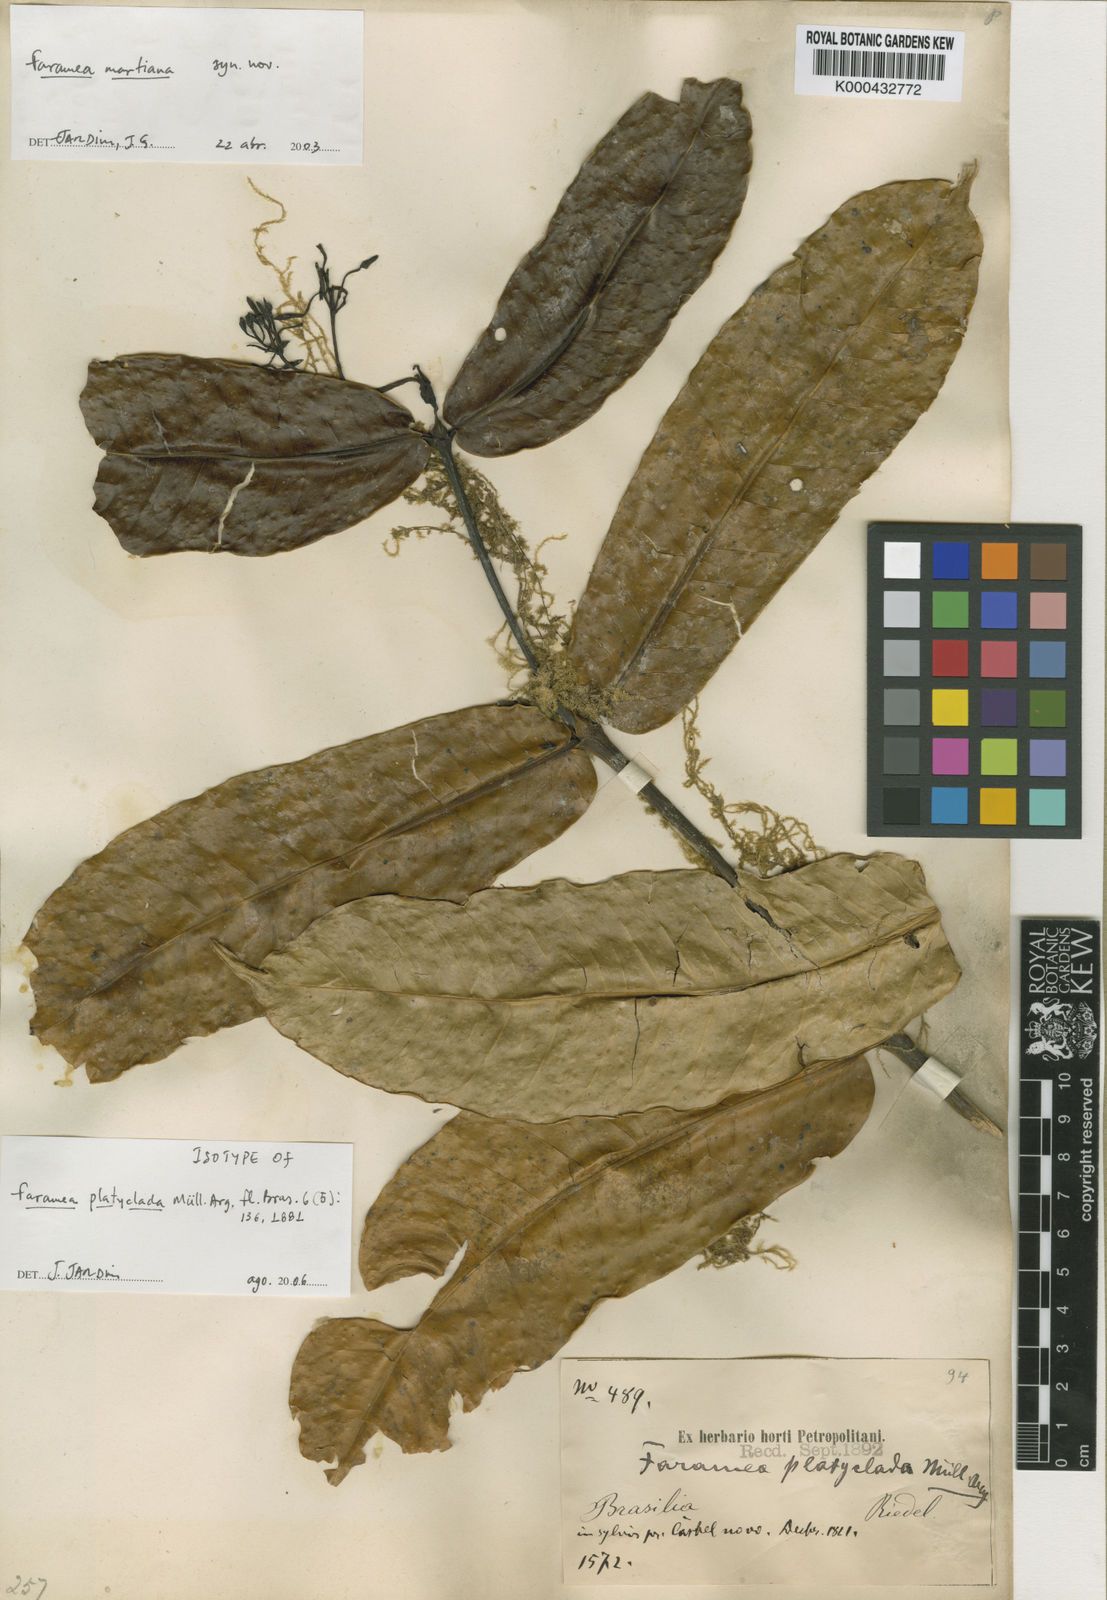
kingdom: Plantae
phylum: Tracheophyta
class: Magnoliopsida
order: Gentianales
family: Rubiaceae
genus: Faramea
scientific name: Faramea
